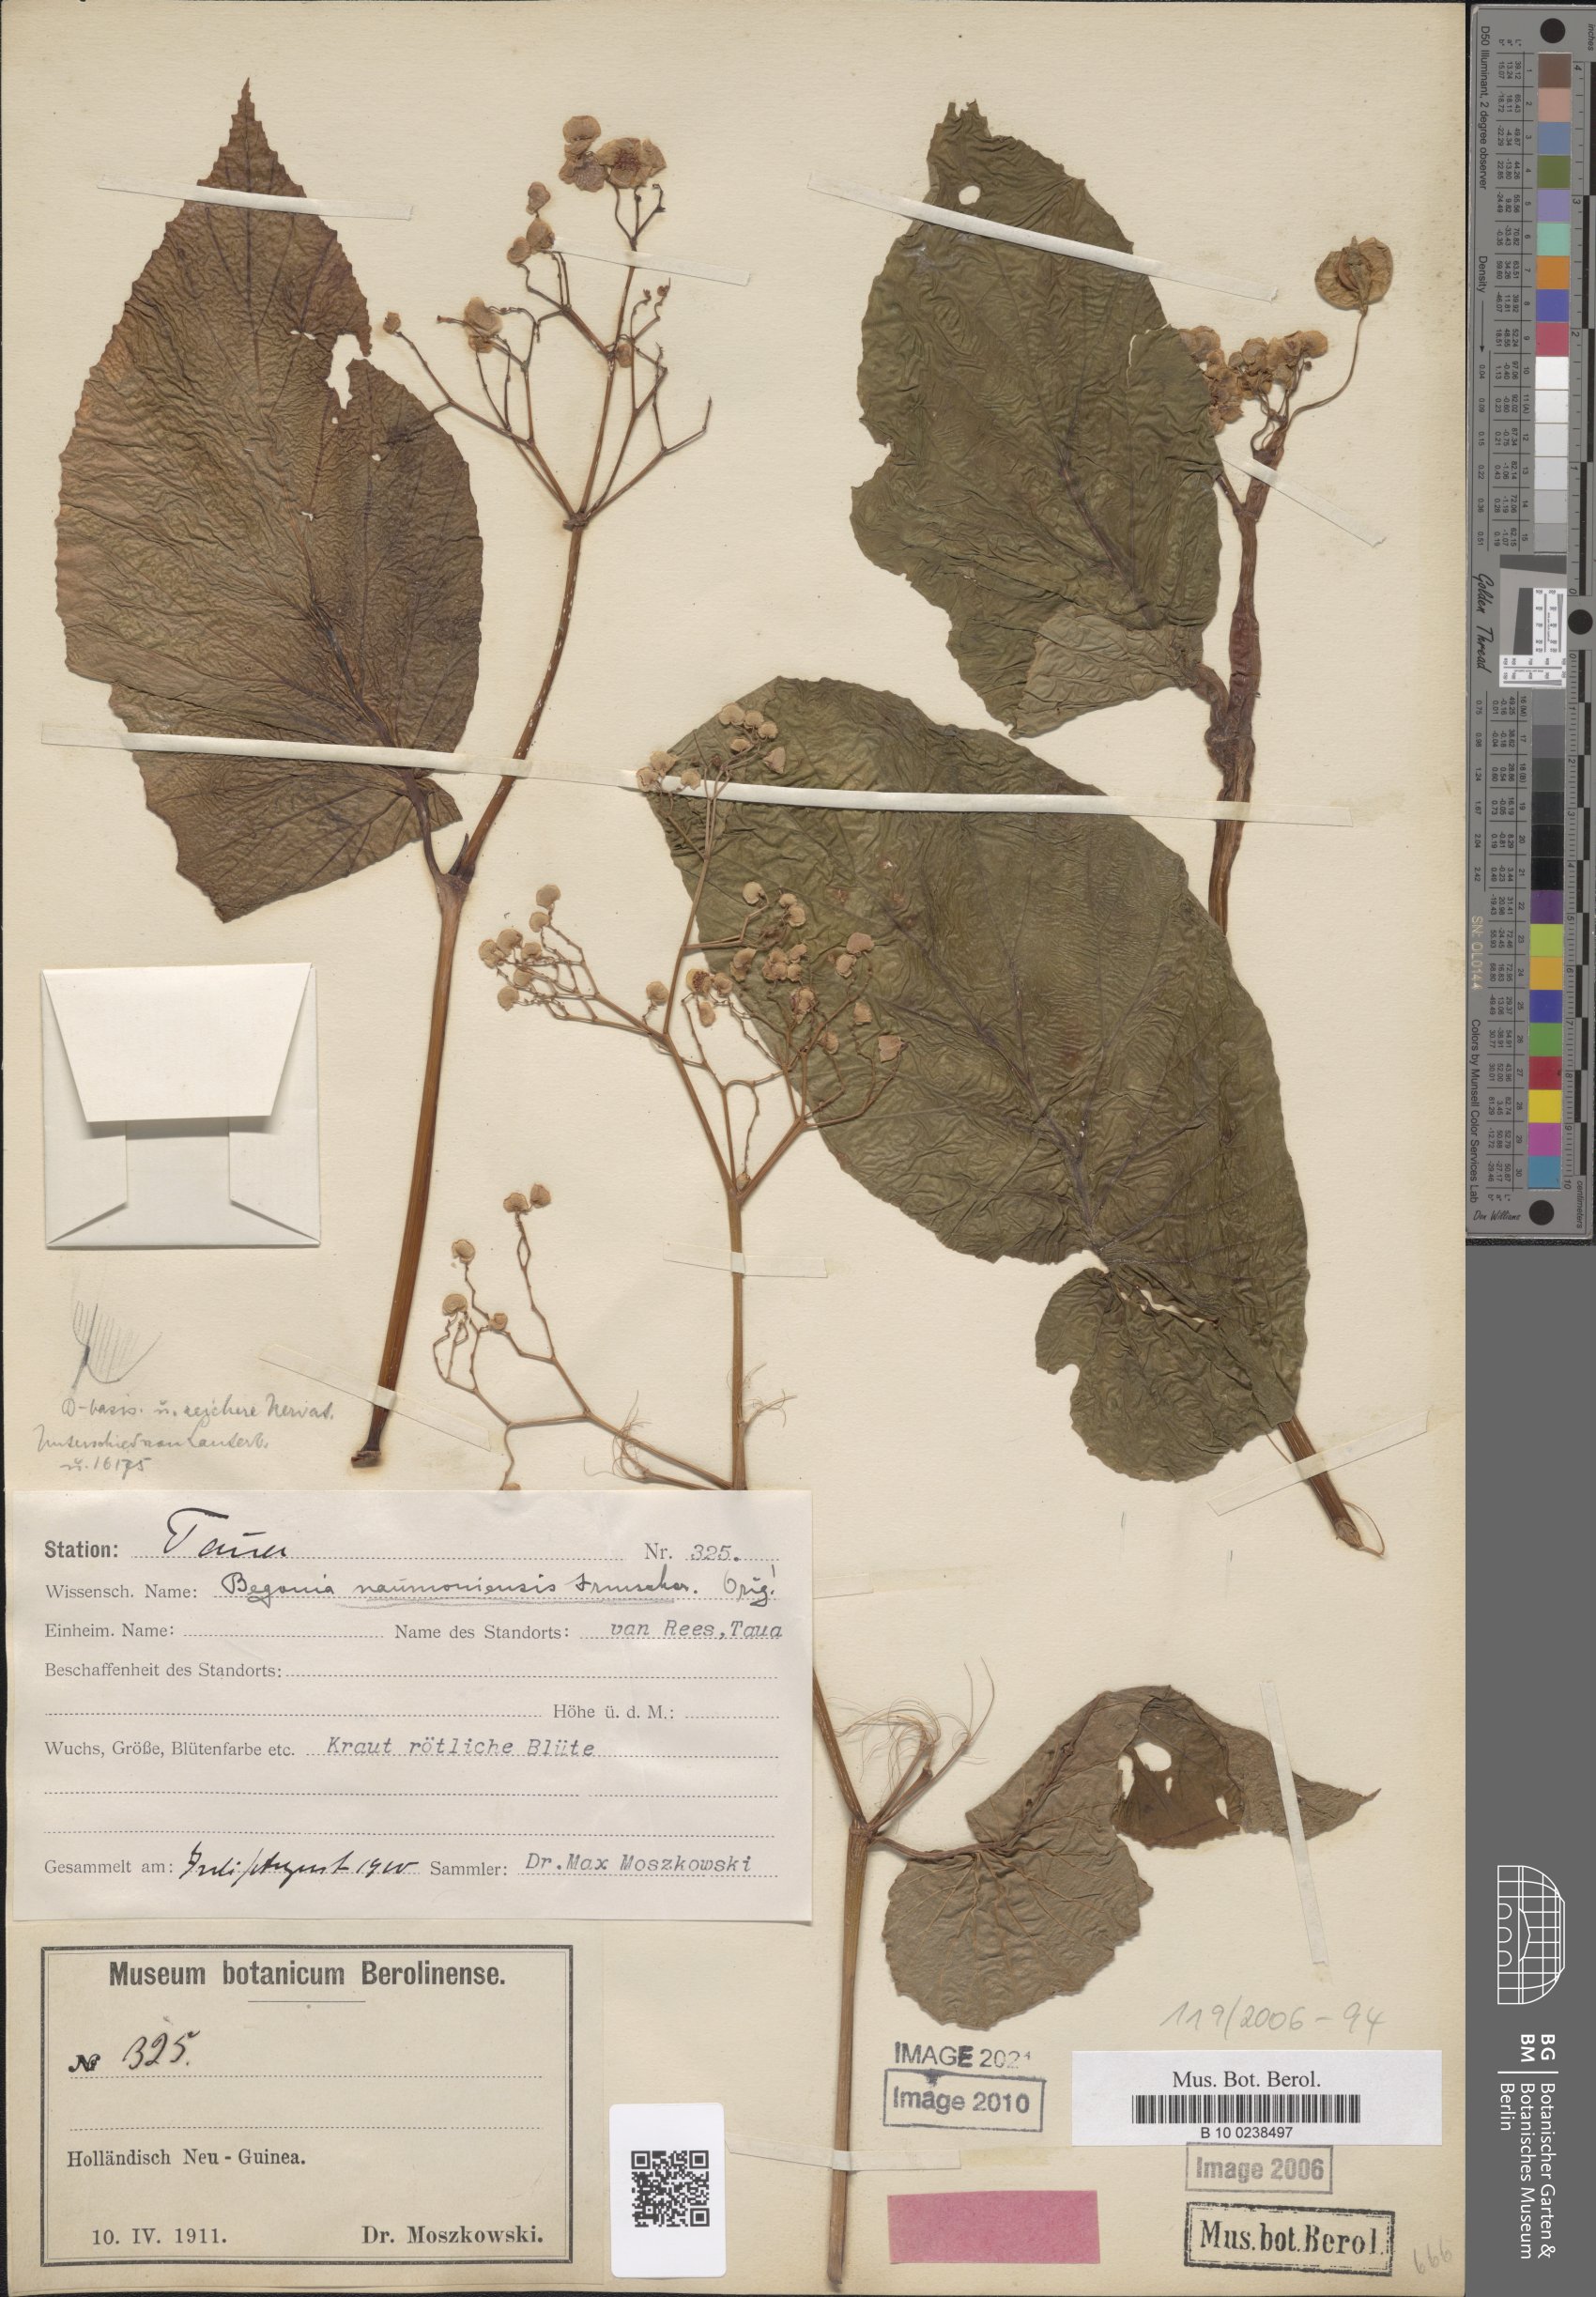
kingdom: Plantae
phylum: Tracheophyta
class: Magnoliopsida
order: Cucurbitales
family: Begoniaceae
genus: Begonia
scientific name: Begonia naumoniensis
